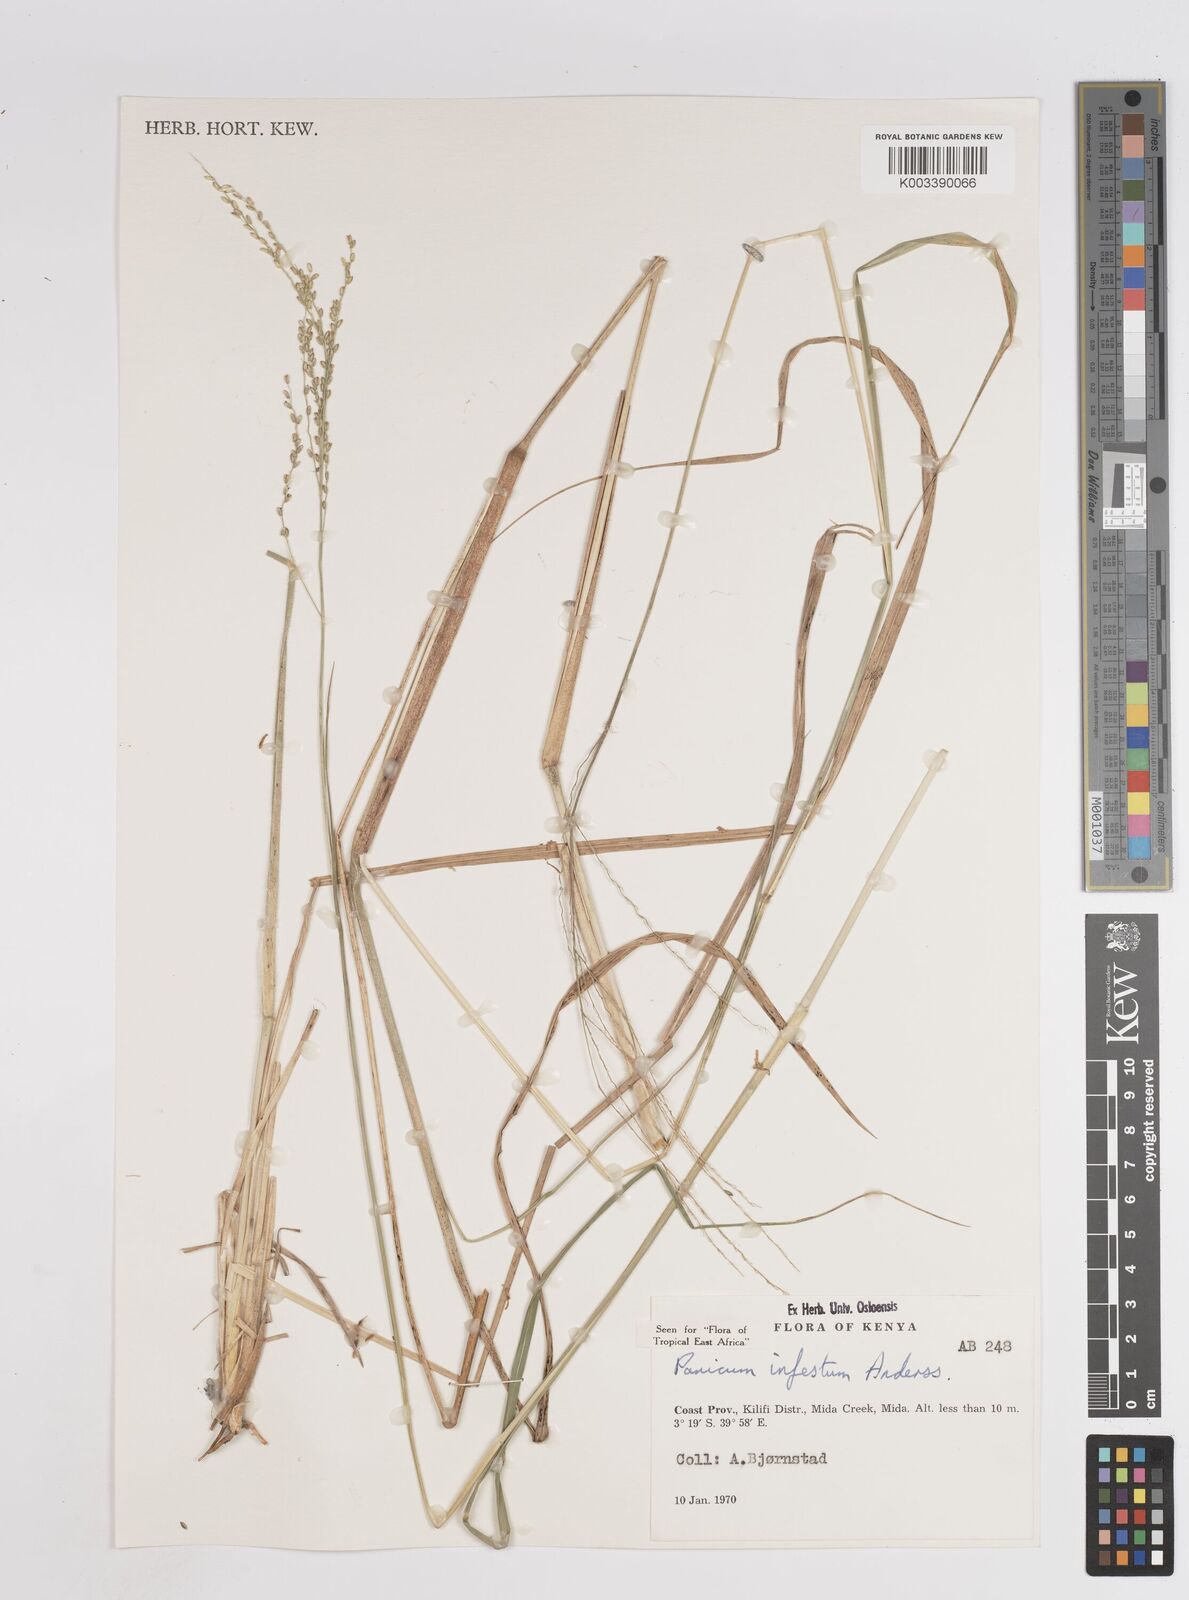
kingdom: Plantae
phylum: Tracheophyta
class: Liliopsida
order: Poales
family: Poaceae
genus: Megathyrsus
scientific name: Megathyrsus infestus
